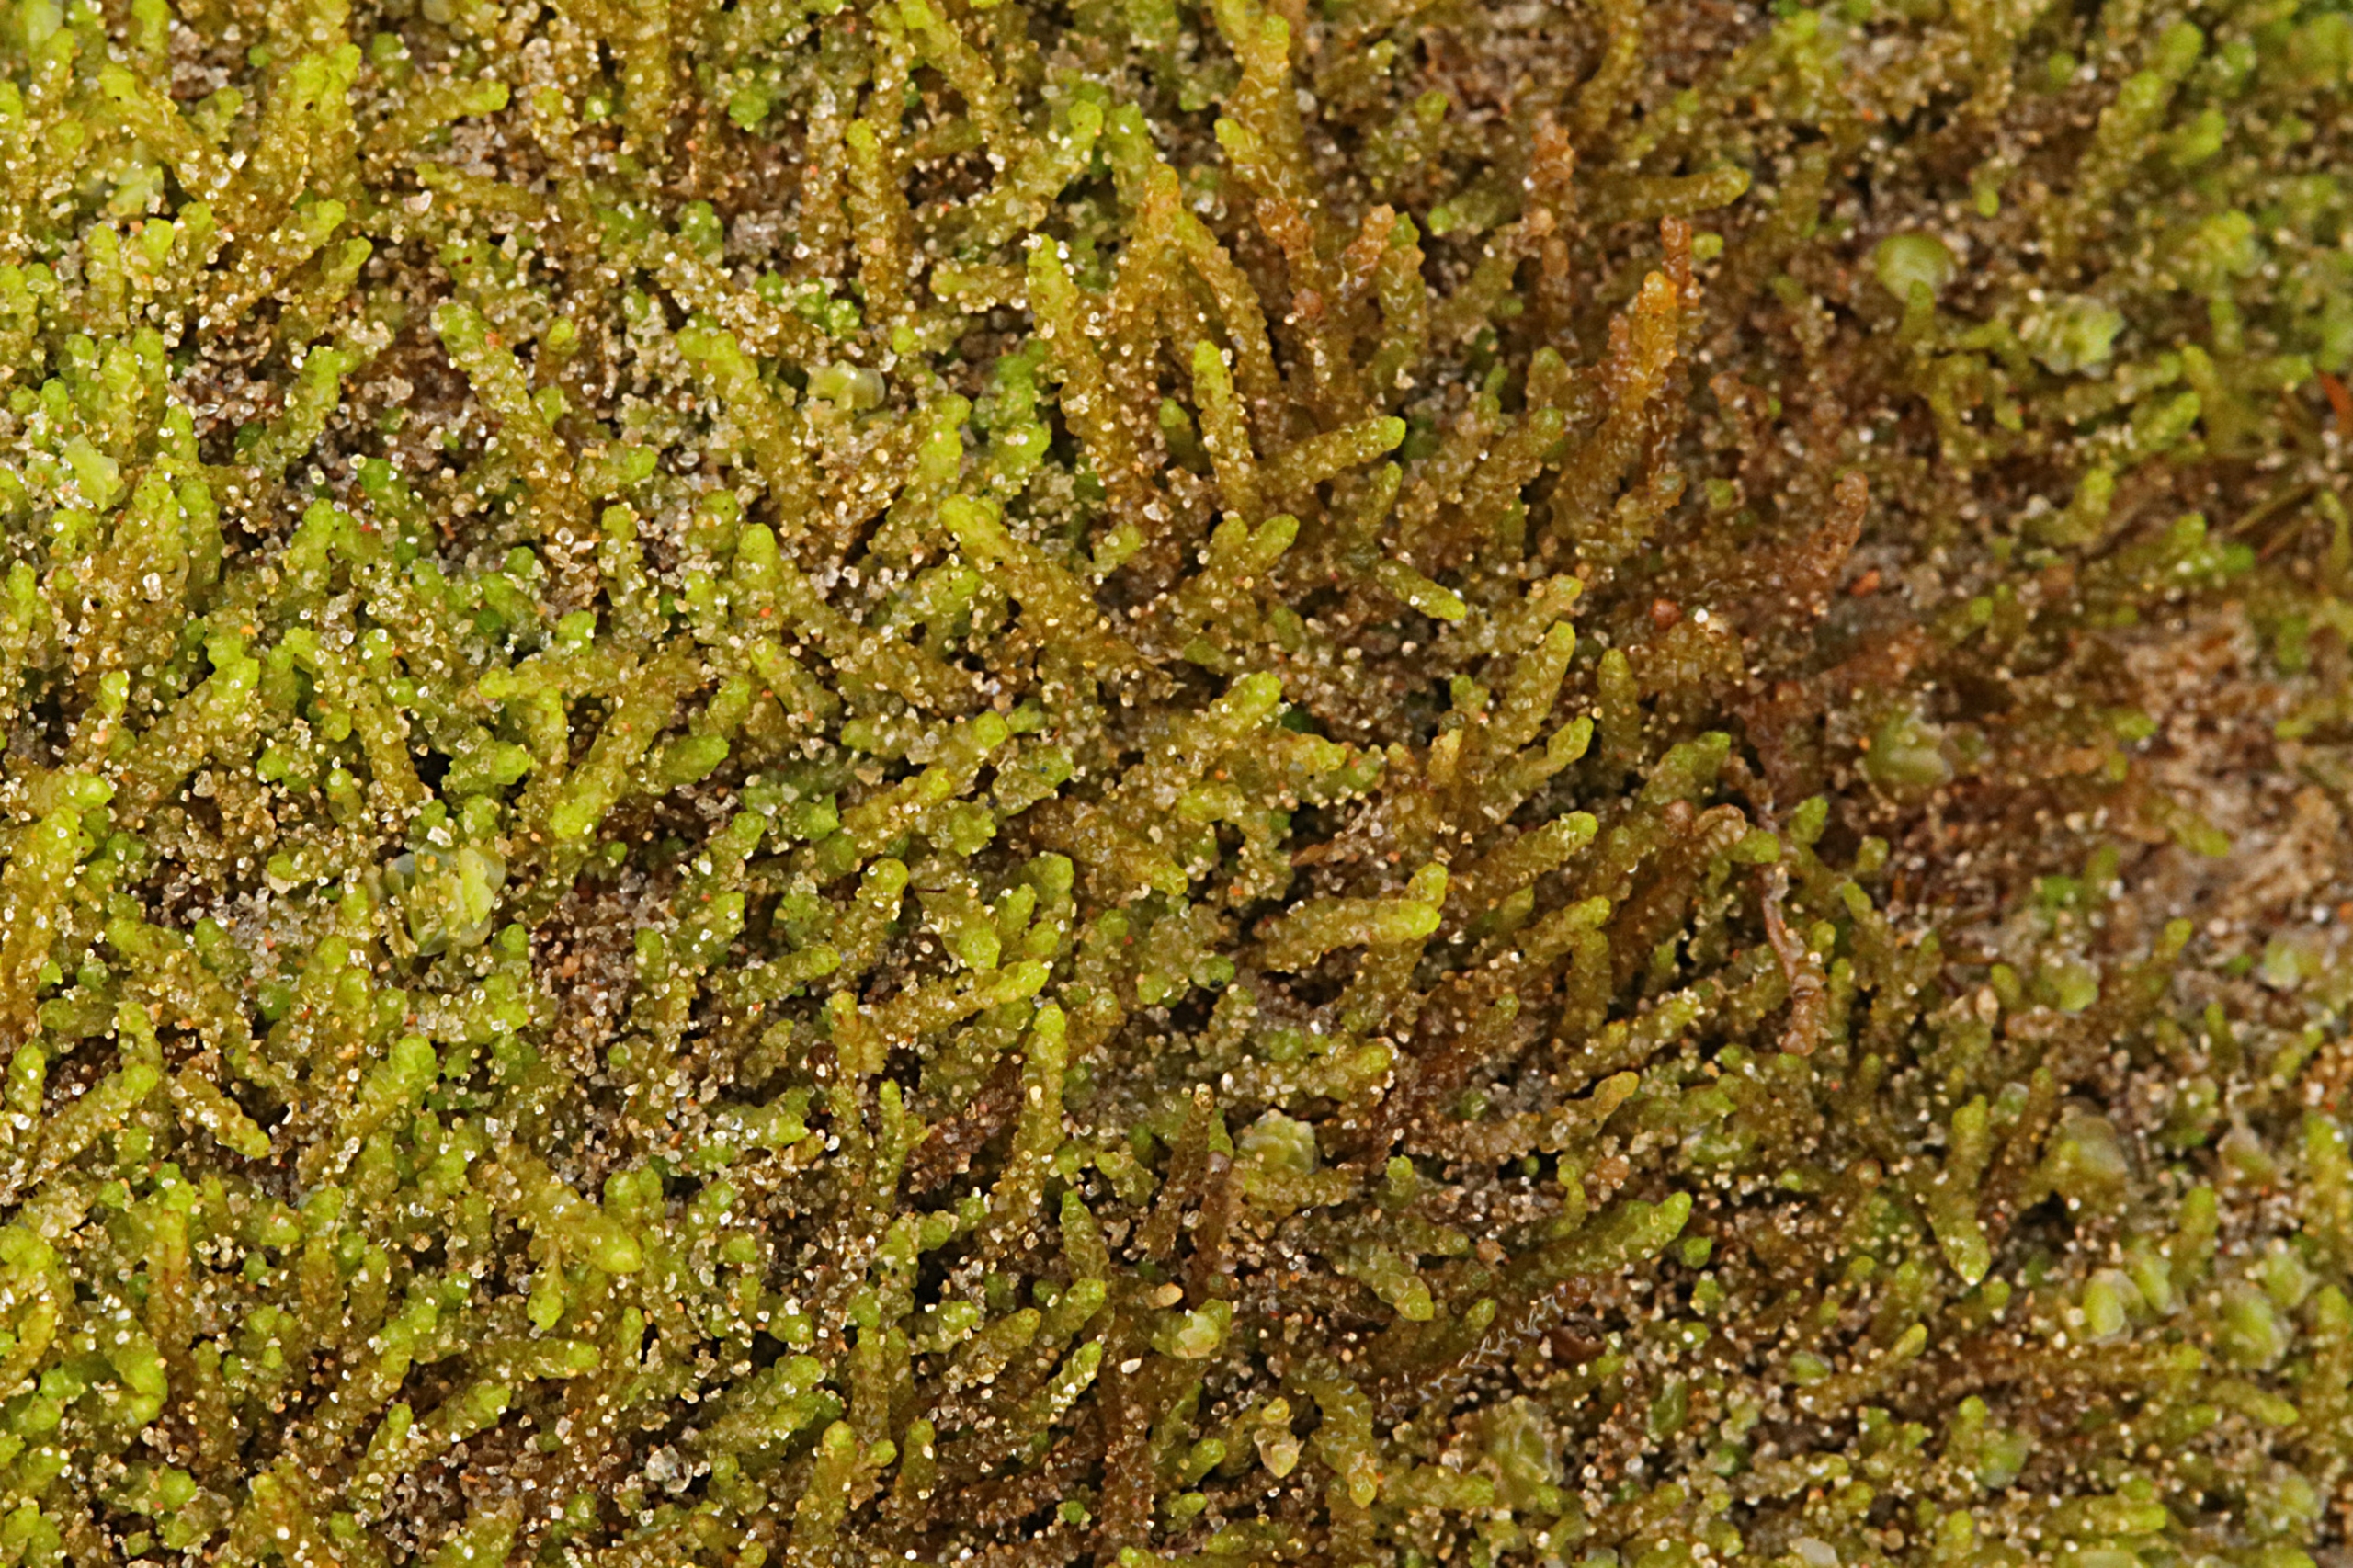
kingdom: Plantae
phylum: Marchantiophyta
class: Jungermanniopsida
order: Jungermanniales
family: Anastrophyllaceae
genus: Barbilophozia
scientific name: Barbilophozia hatcheri
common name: Spidsfliget flerfligmos
